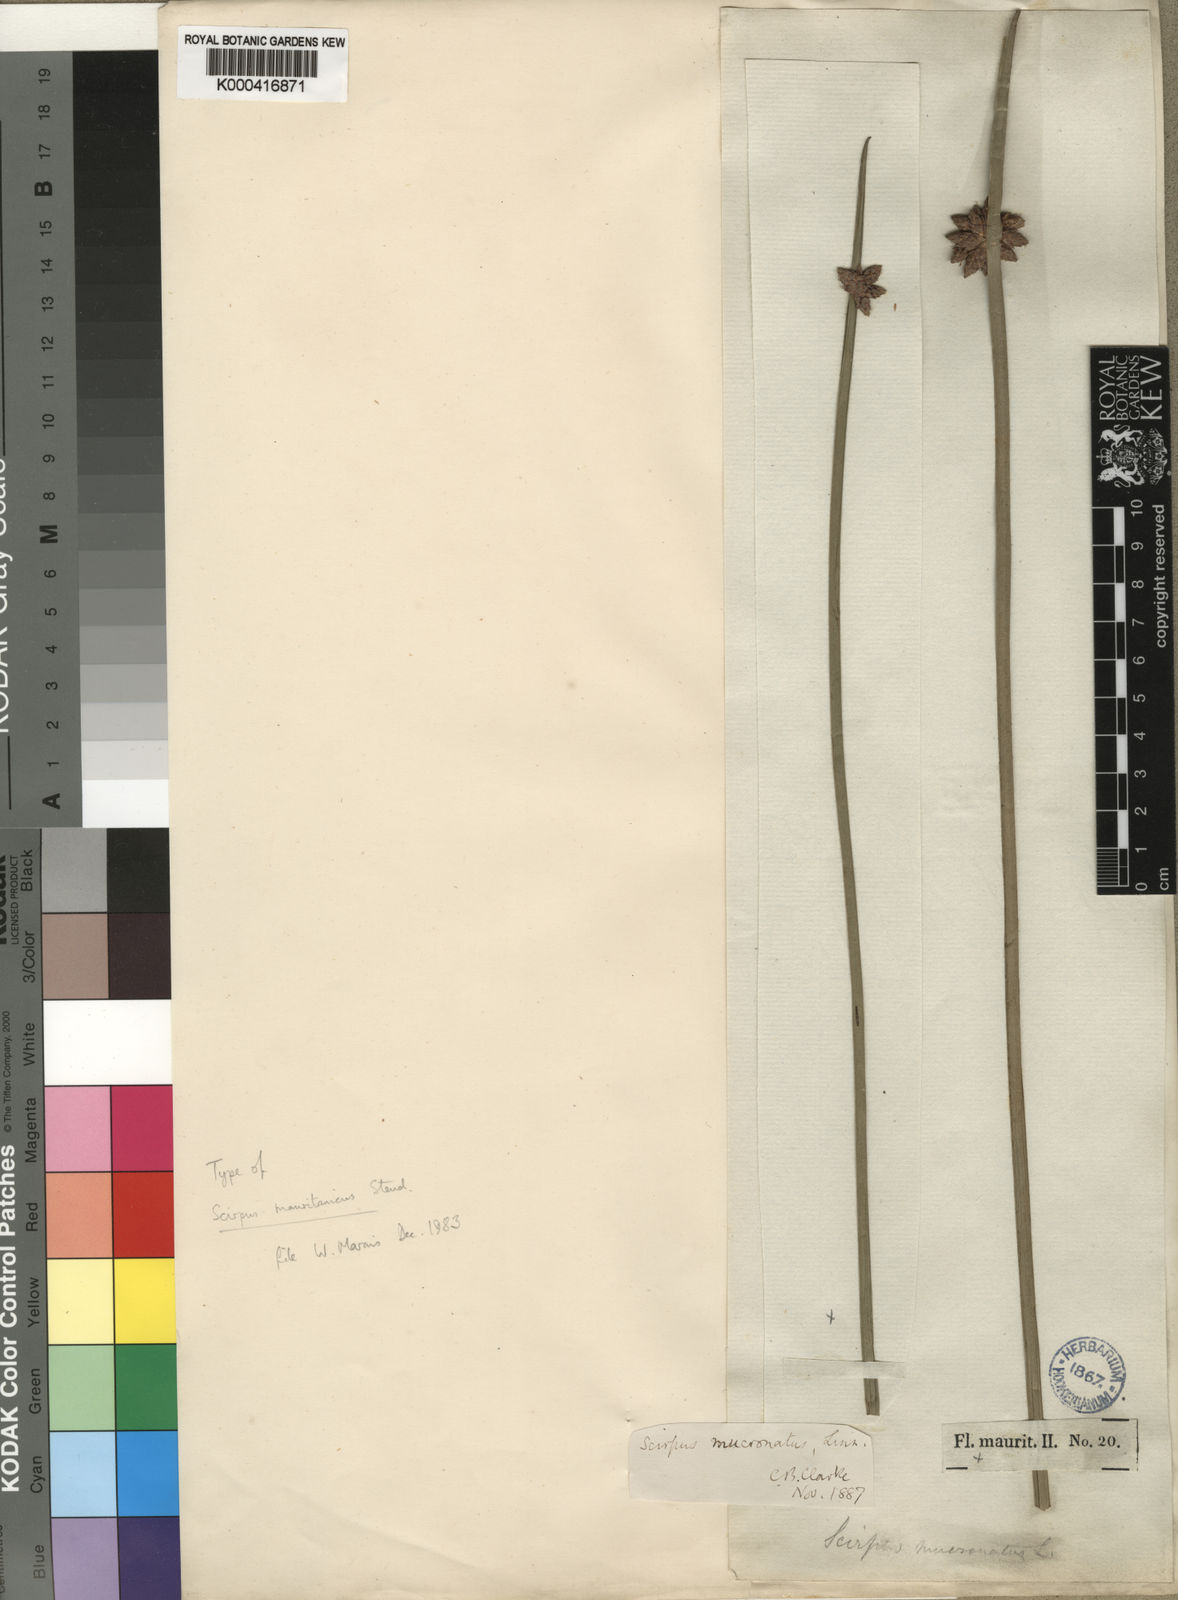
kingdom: Plantae
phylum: Tracheophyta
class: Liliopsida
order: Poales
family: Cyperaceae
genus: Schoenoplectiella
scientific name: Schoenoplectiella mucronata
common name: Bog bulrush
